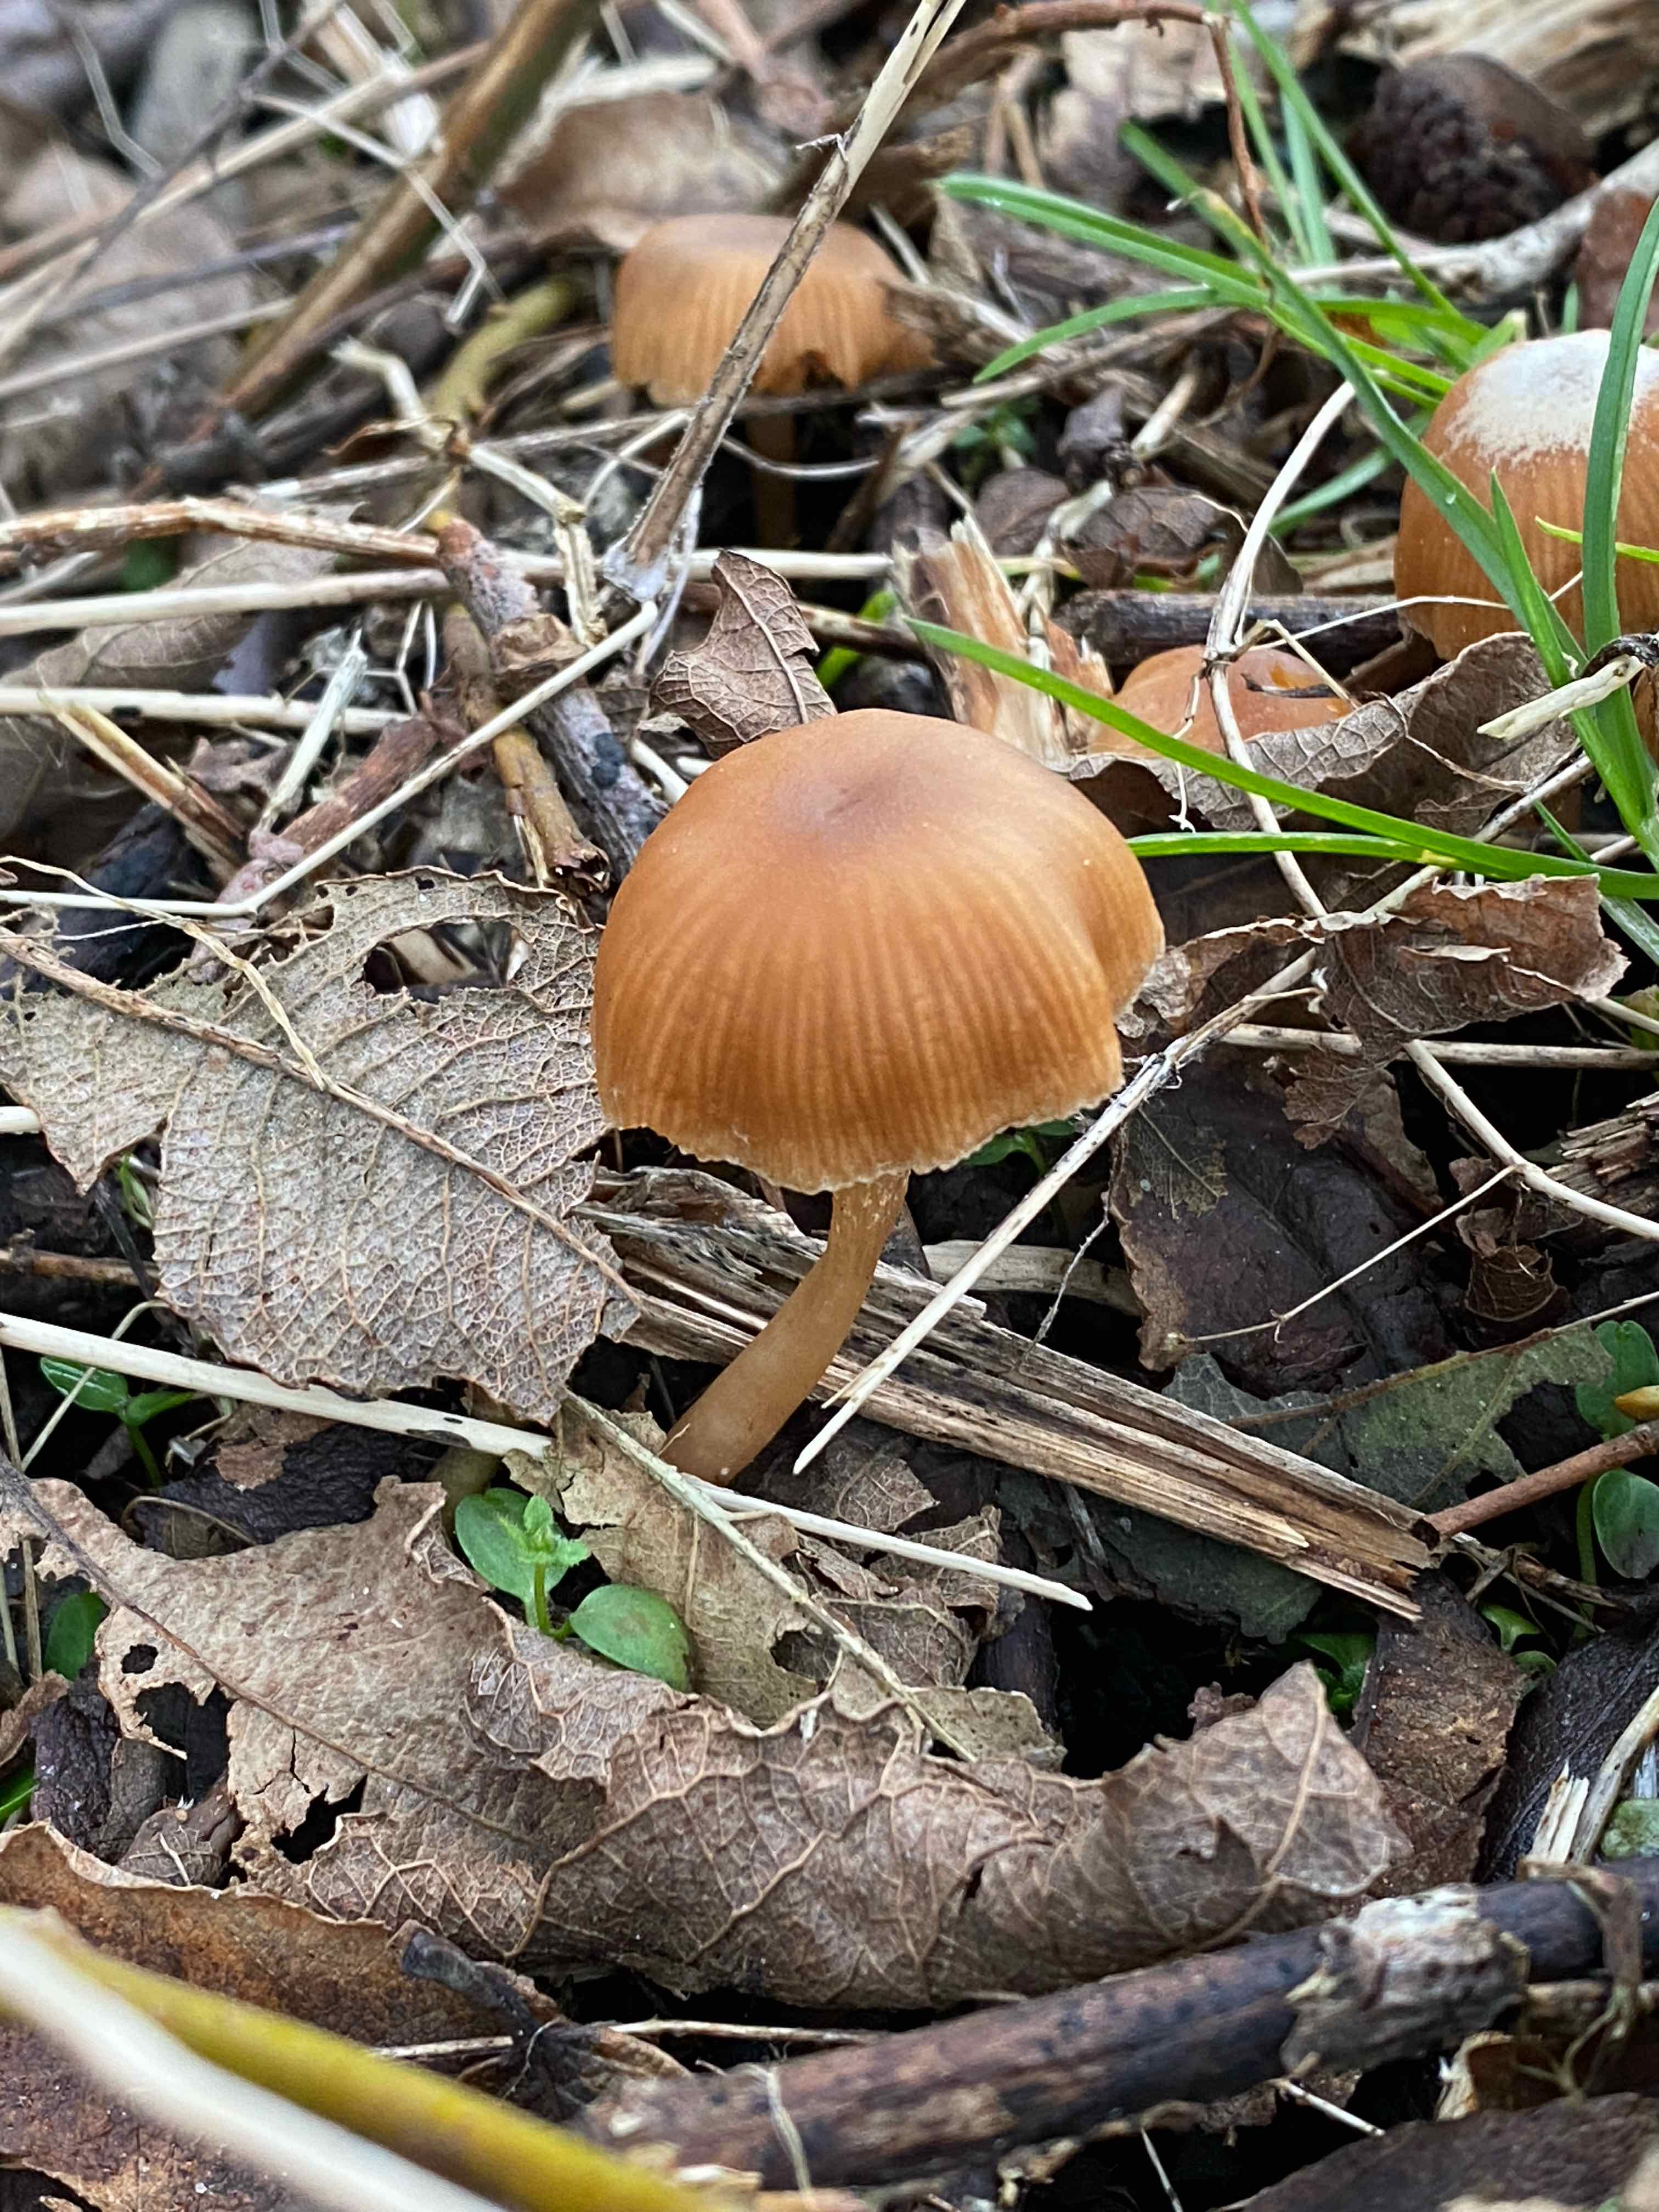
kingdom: Fungi
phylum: Basidiomycota
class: Agaricomycetes
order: Agaricales
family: Tubariaceae
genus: Tubaria
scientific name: Tubaria furfuracea
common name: kliddet fnughat
